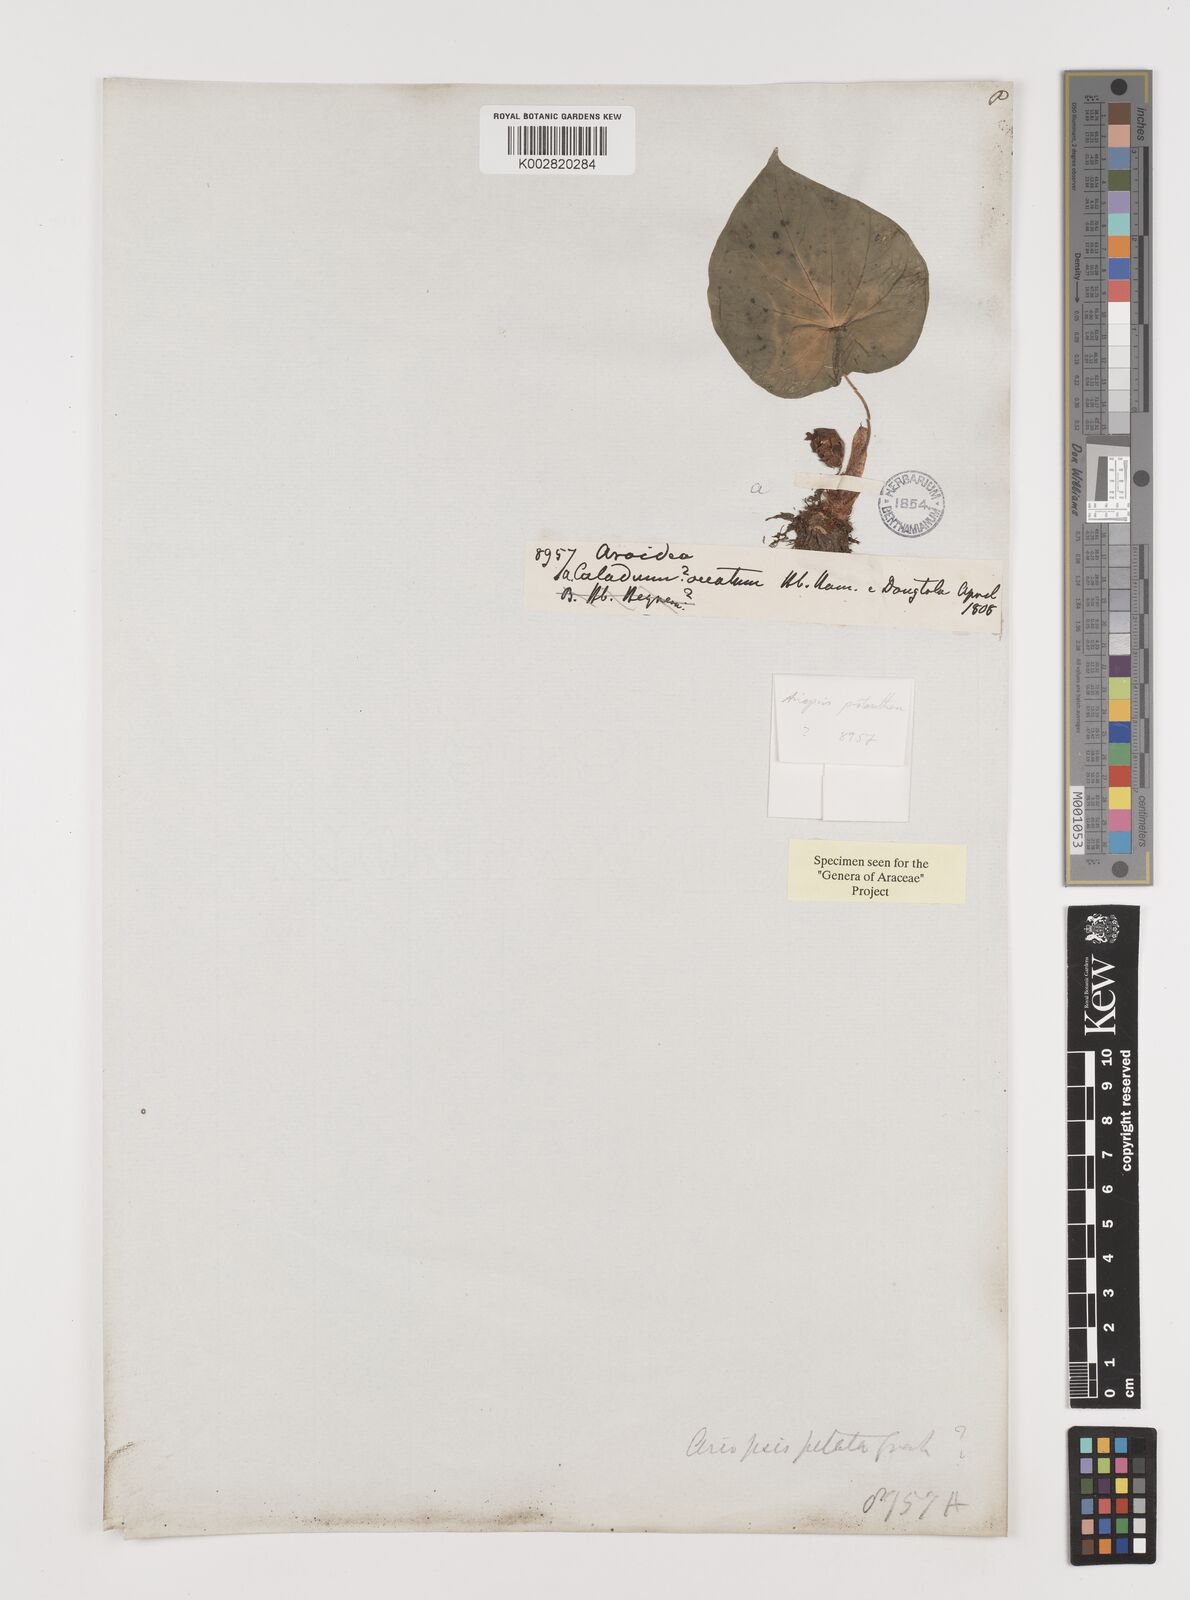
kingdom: Plantae
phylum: Tracheophyta
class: Liliopsida
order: Alismatales
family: Araceae
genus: Ariopsis
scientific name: Ariopsis peltata
